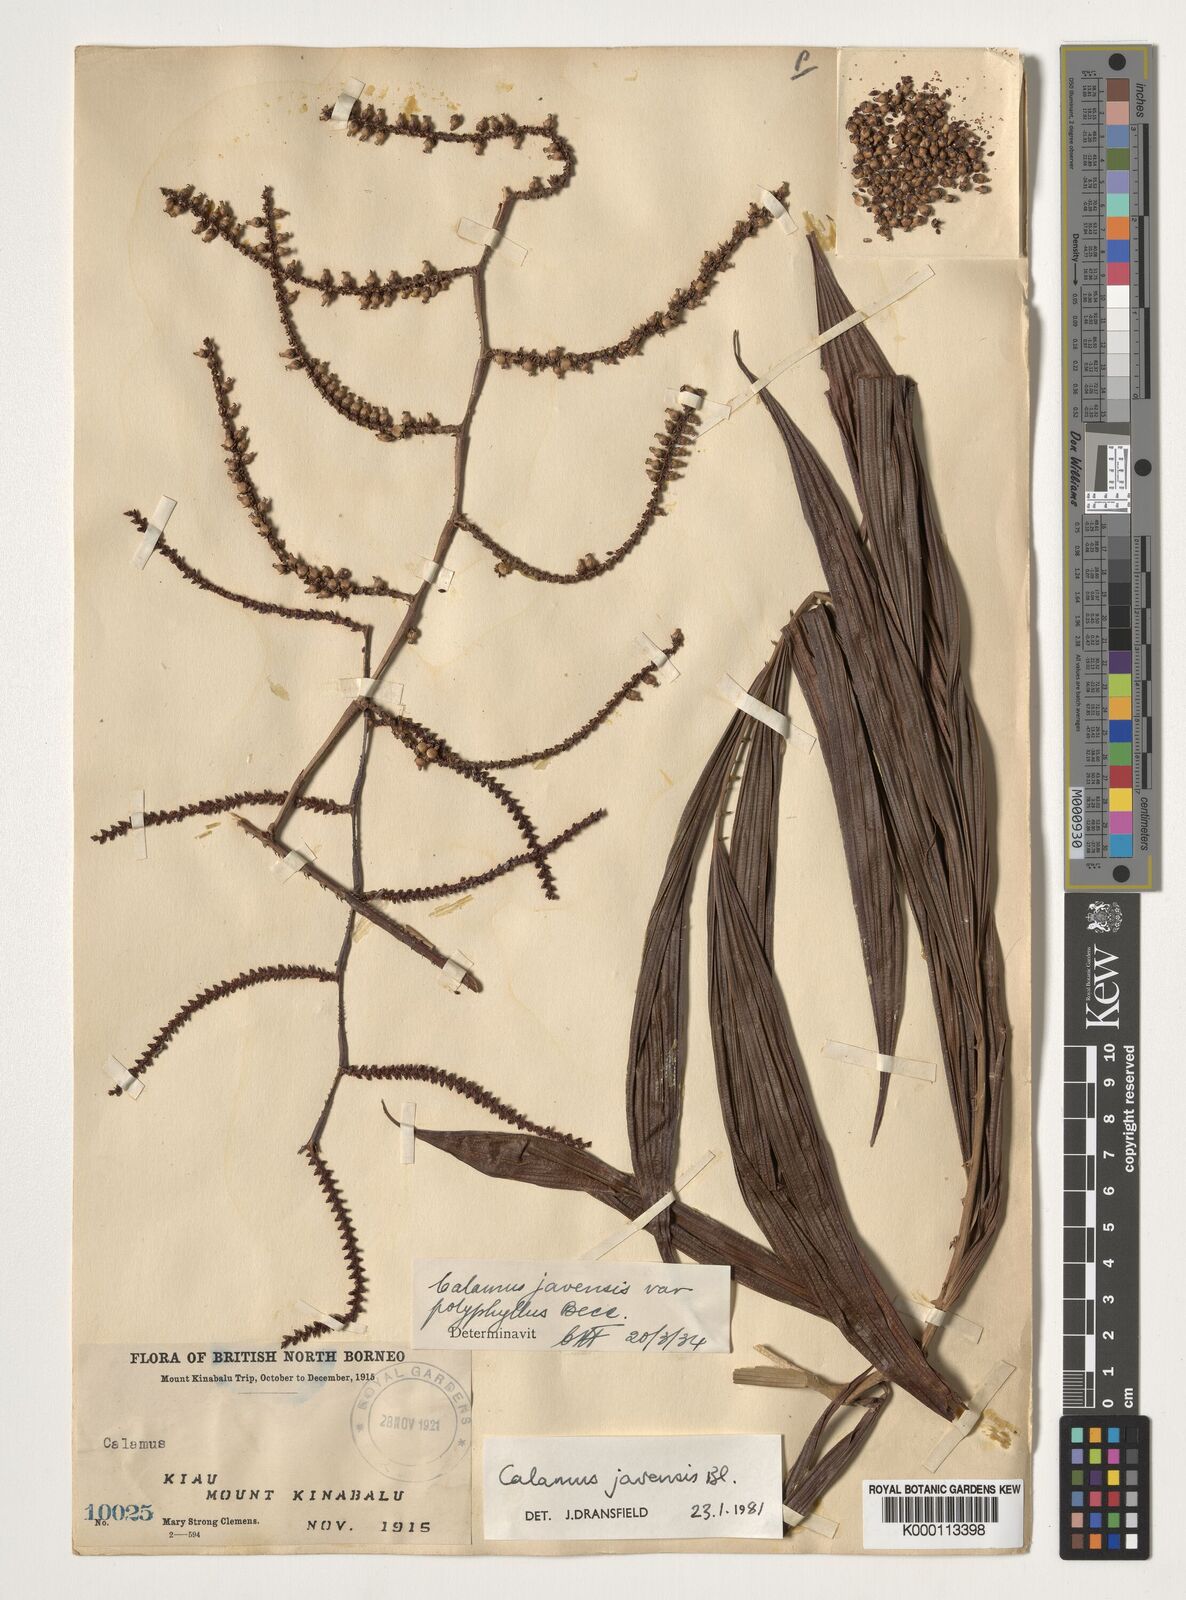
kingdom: Plantae
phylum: Tracheophyta
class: Liliopsida
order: Arecales
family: Arecaceae
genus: Calamus
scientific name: Calamus javensis
